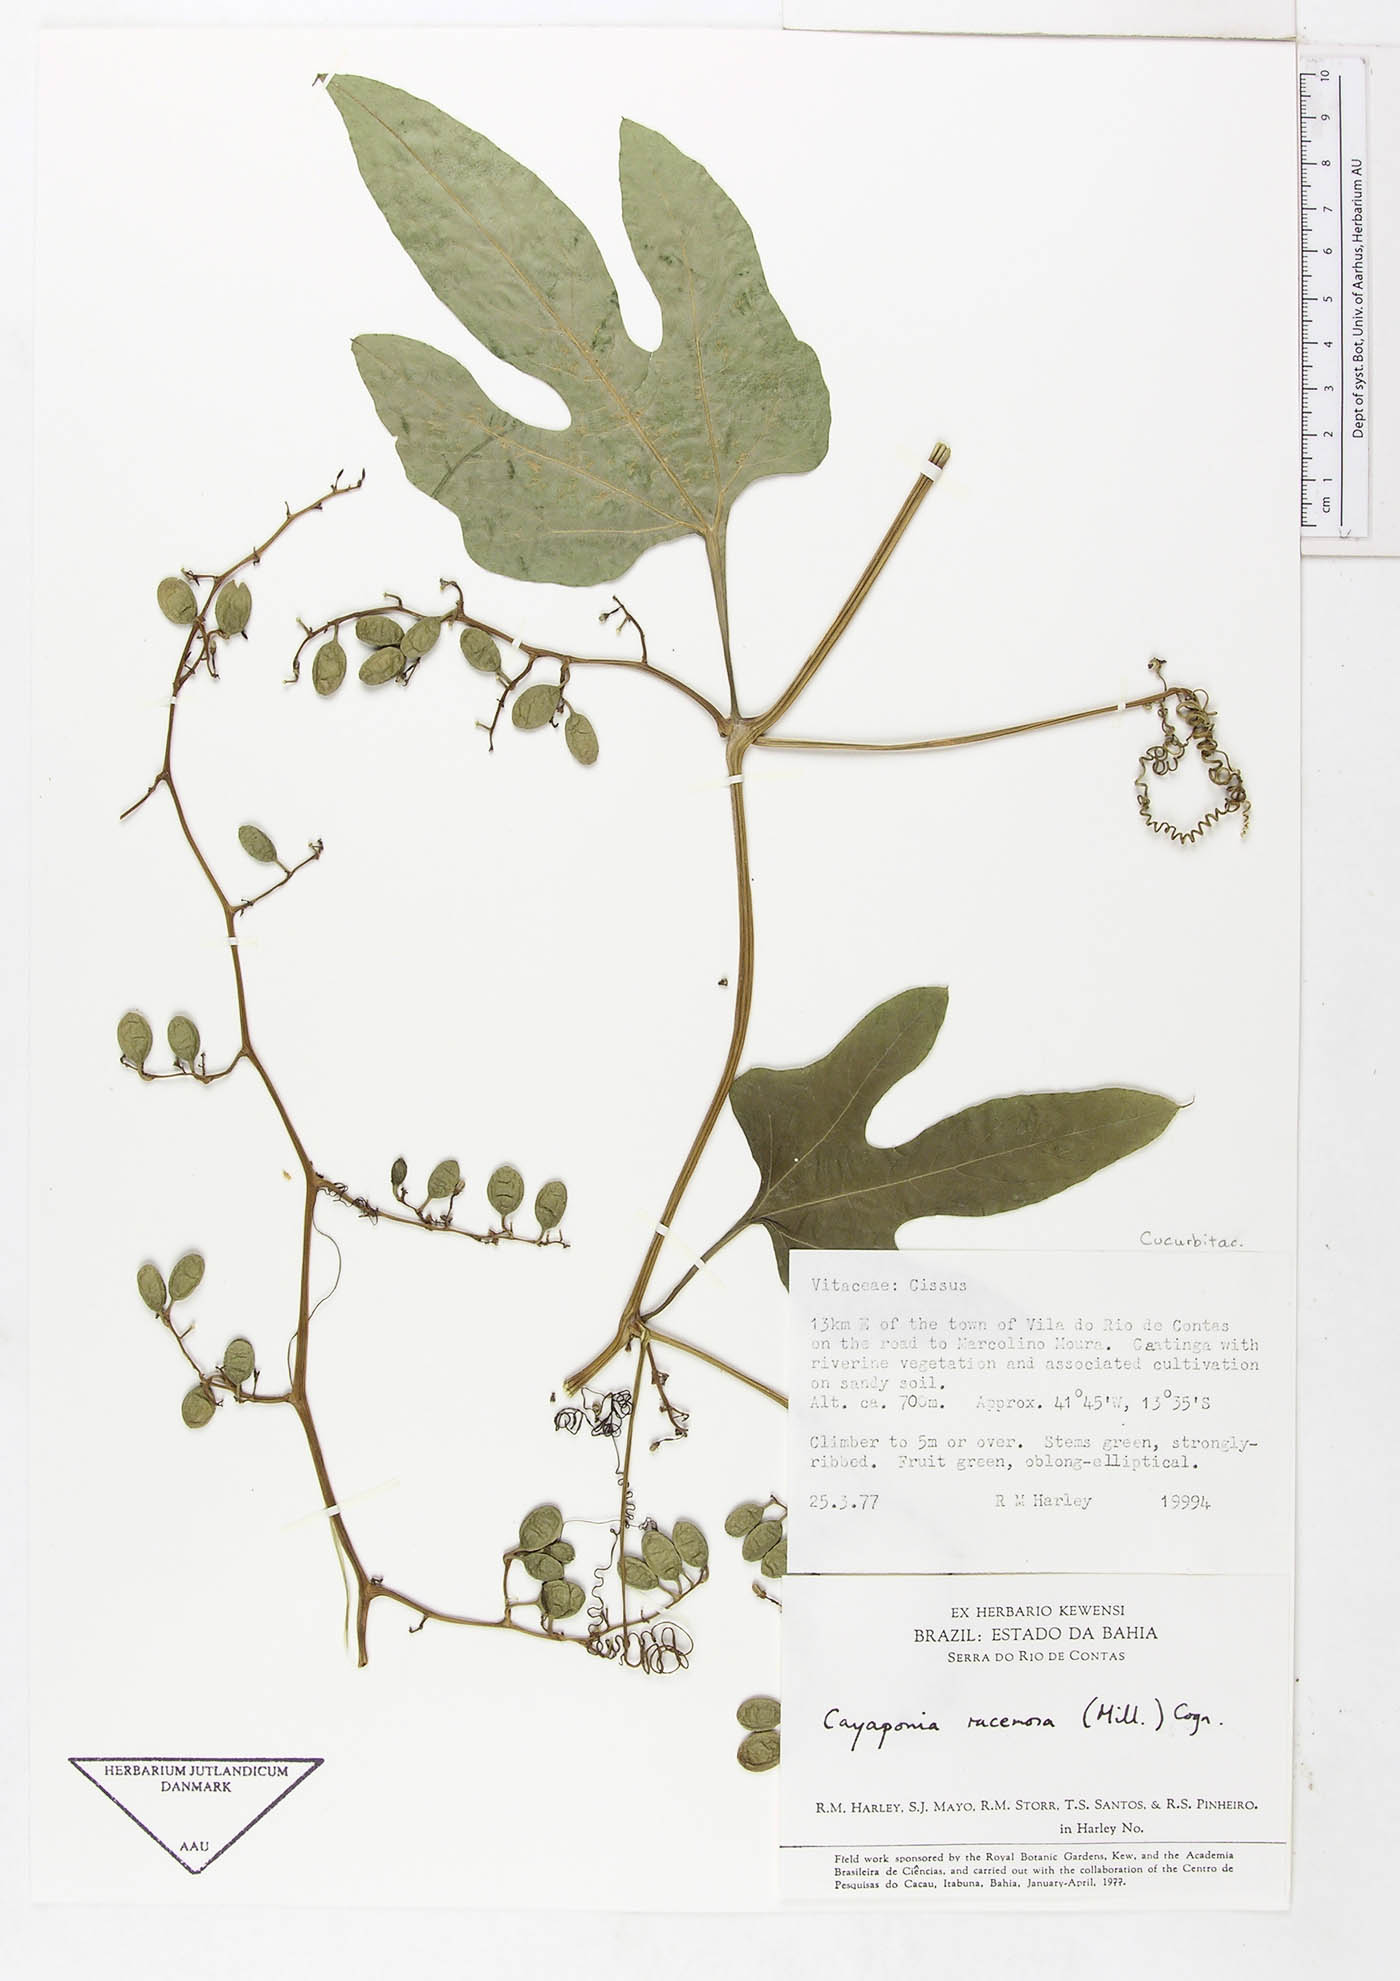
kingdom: Plantae
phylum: Tracheophyta
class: Magnoliopsida
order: Cucurbitales
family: Cucurbitaceae
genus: Cayaponia
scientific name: Cayaponia racemosa
